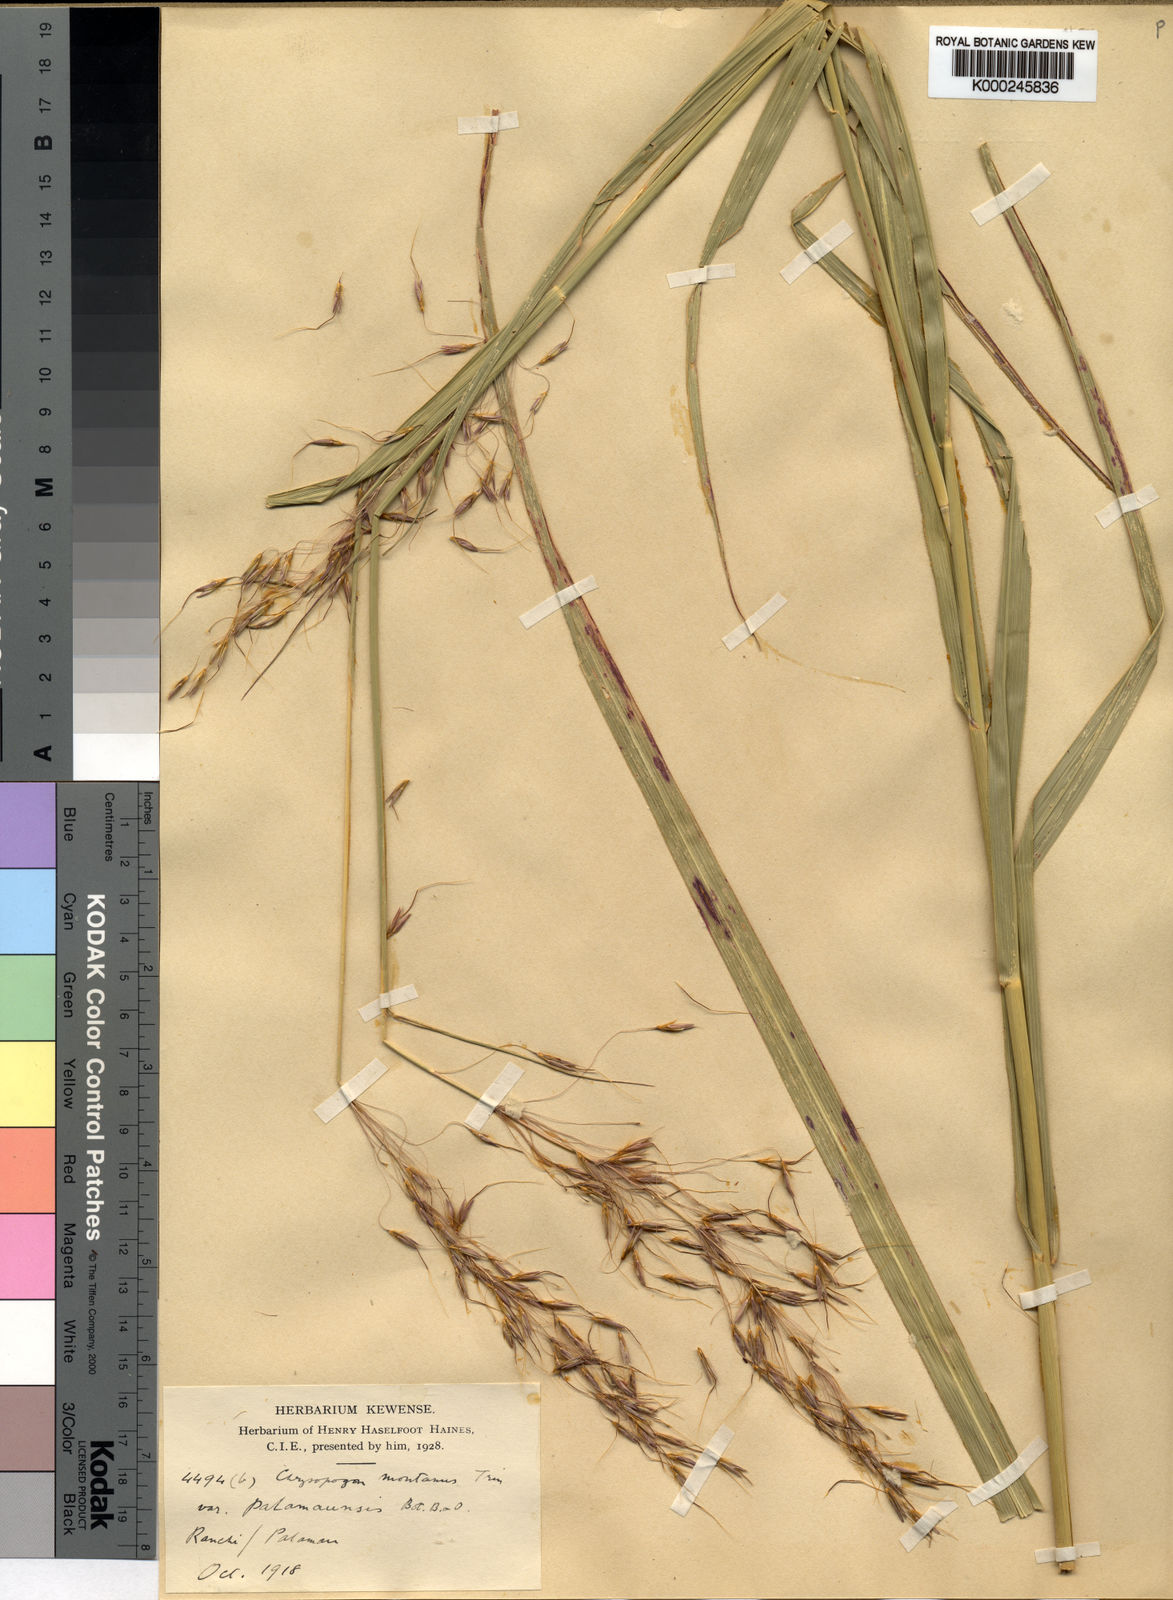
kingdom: Plantae
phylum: Tracheophyta
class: Liliopsida
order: Poales
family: Poaceae
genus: Chrysopogon
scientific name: Chrysopogon
